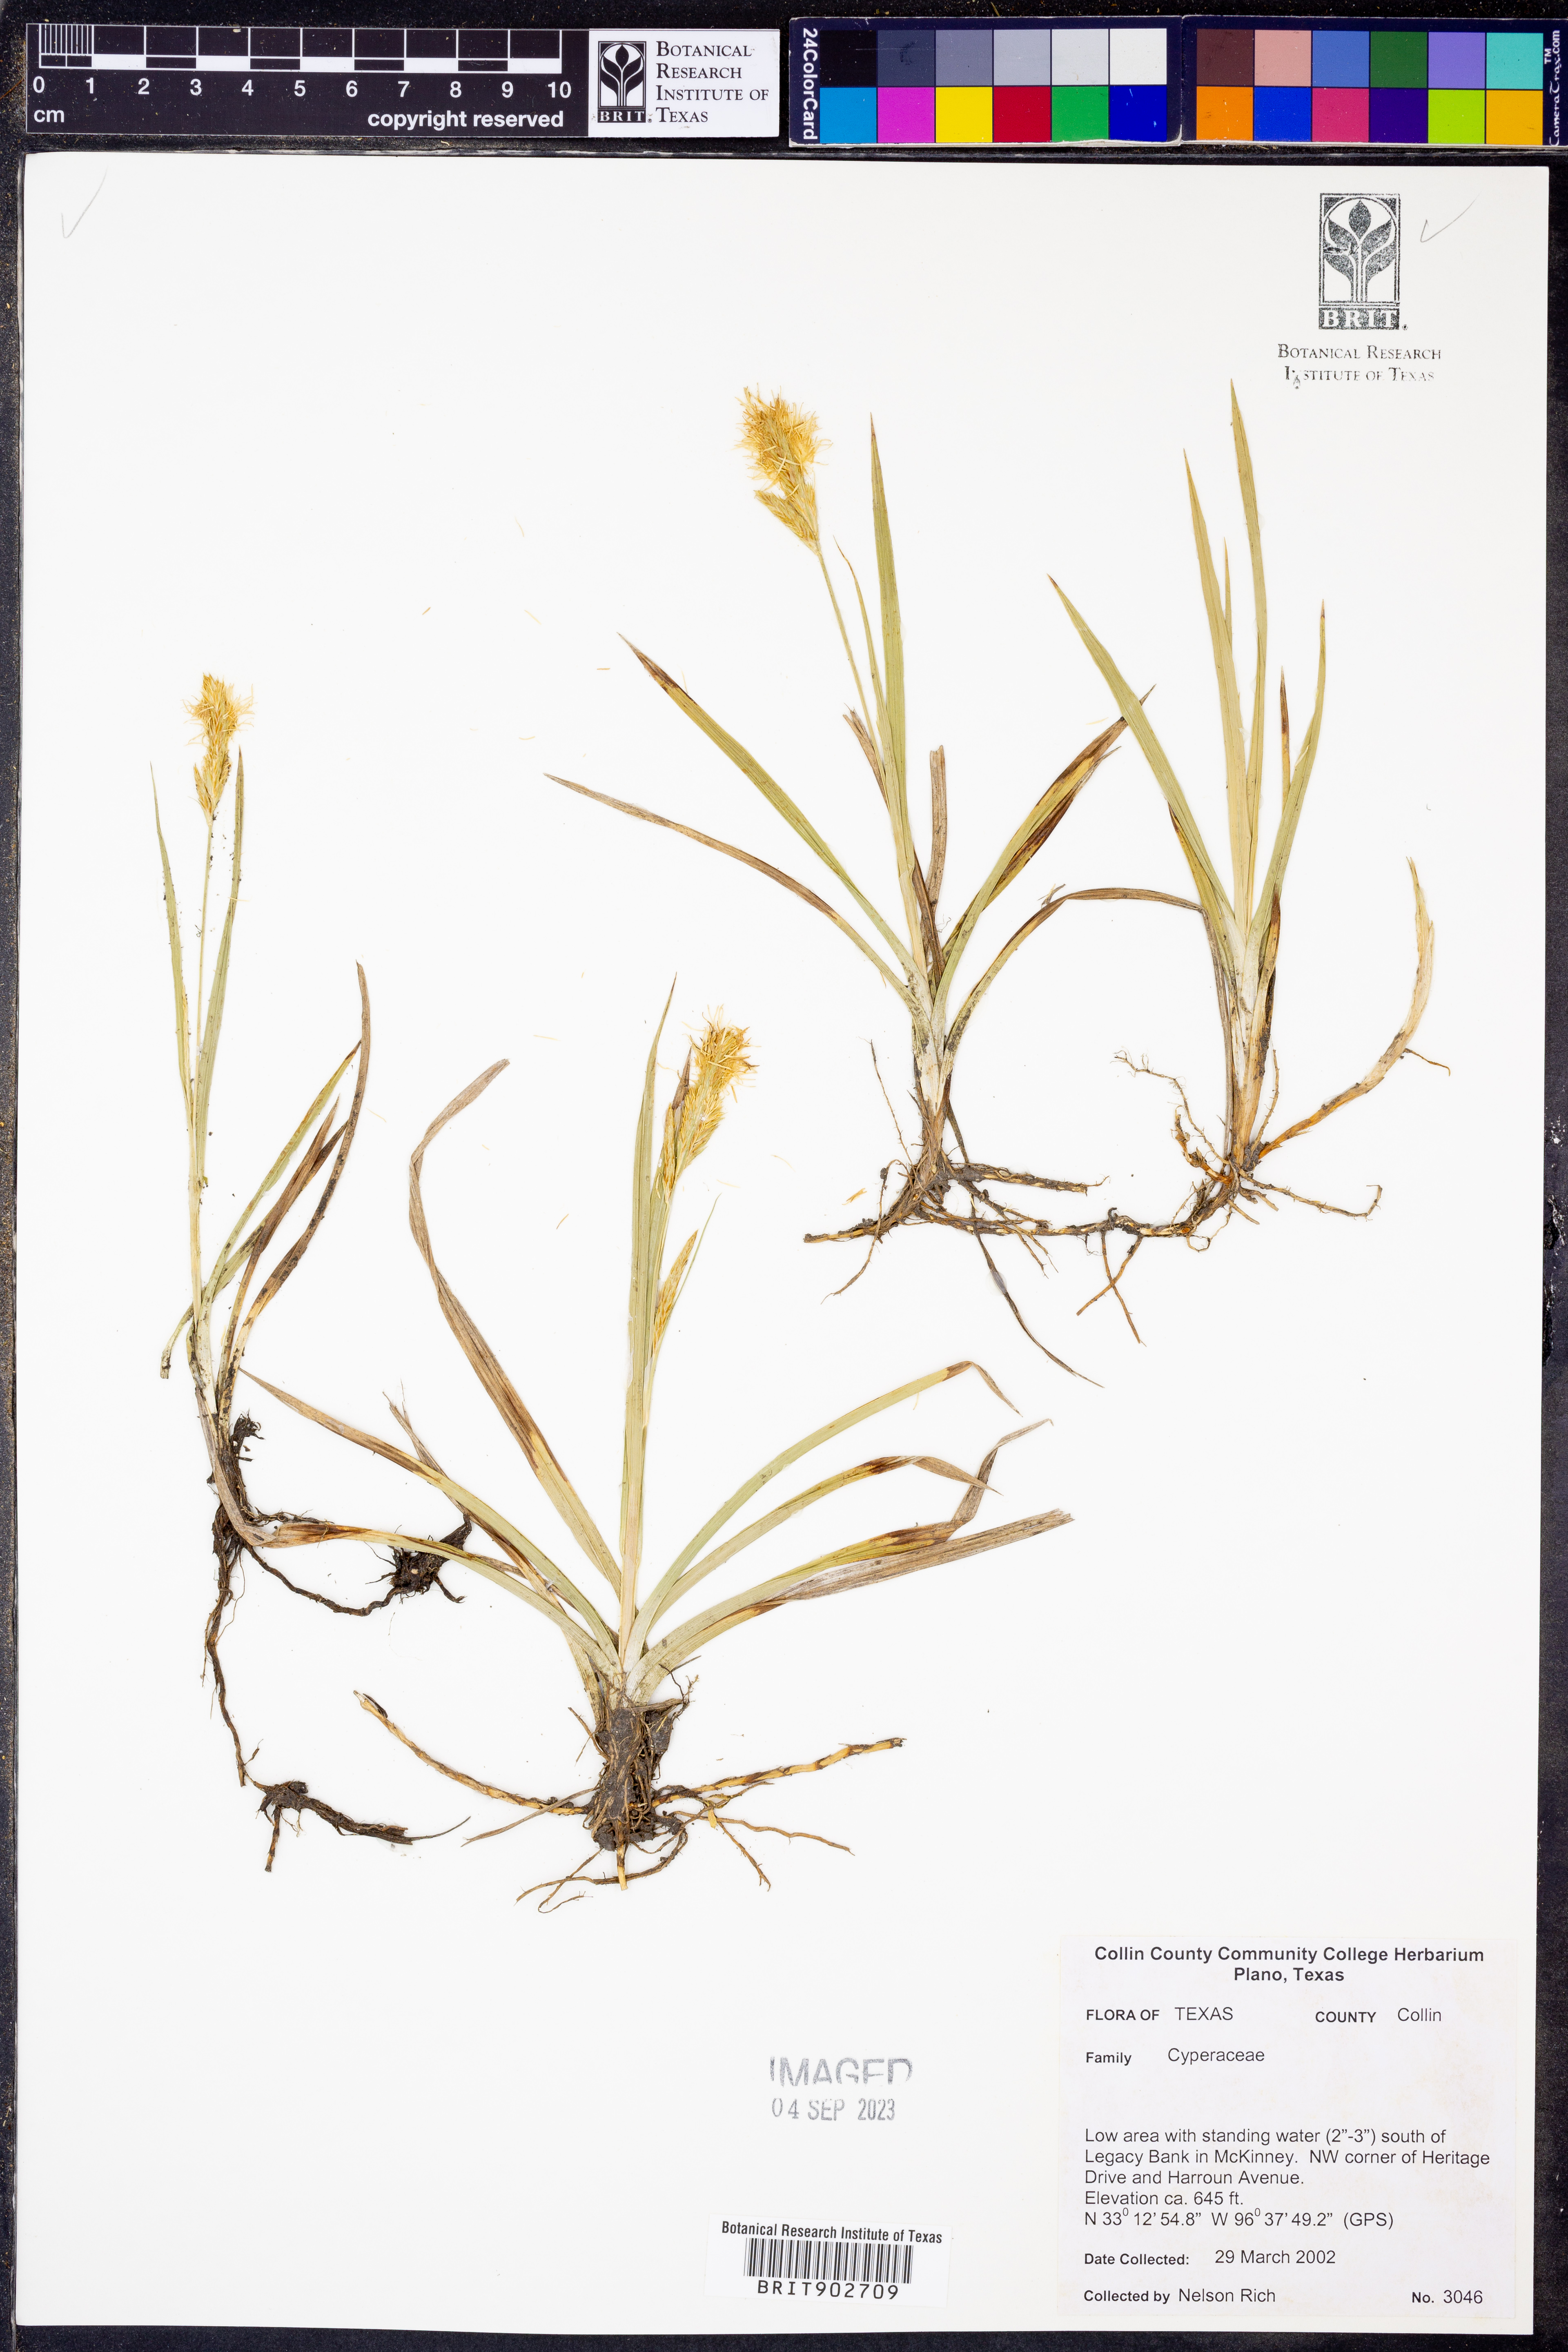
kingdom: Plantae
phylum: Tracheophyta
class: Liliopsida
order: Poales
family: Cyperaceae
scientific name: Cyperaceae
